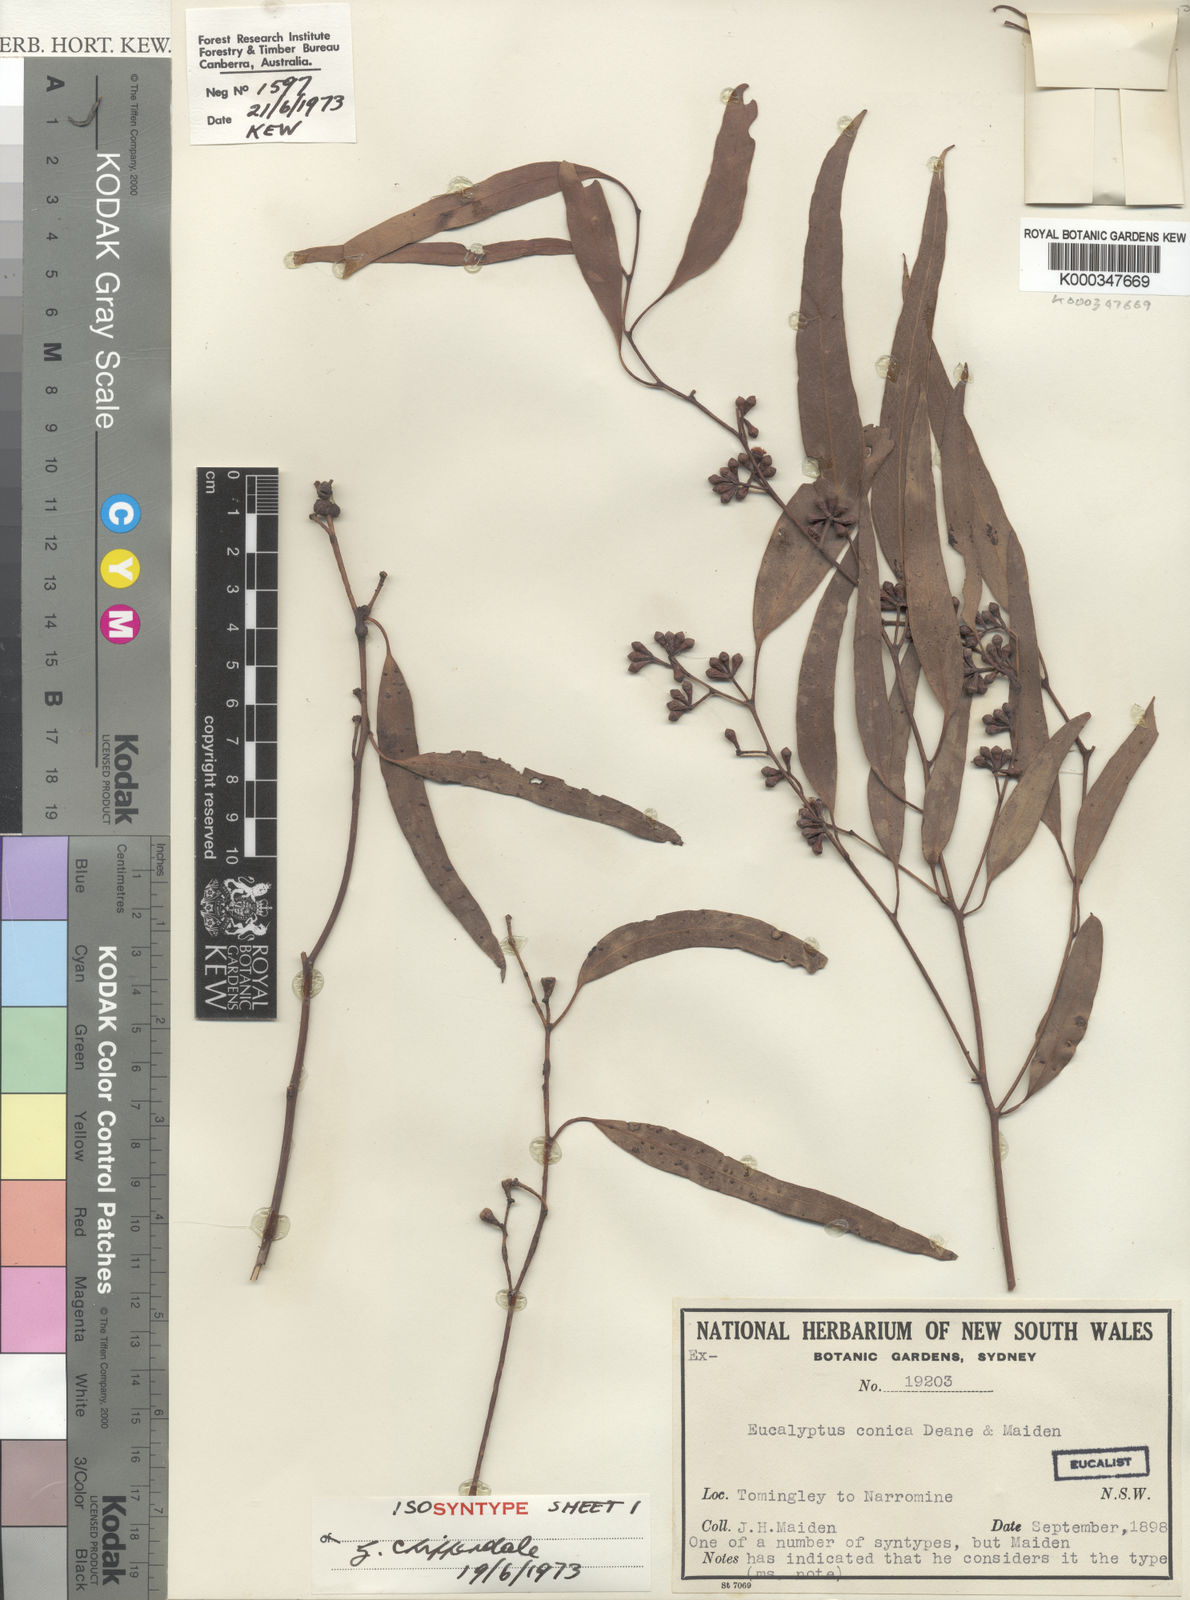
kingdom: Plantae
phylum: Tracheophyta
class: Magnoliopsida
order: Myrtales
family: Myrtaceae
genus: Eucalyptus
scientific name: Eucalyptus conica
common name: Fuzzy-box
